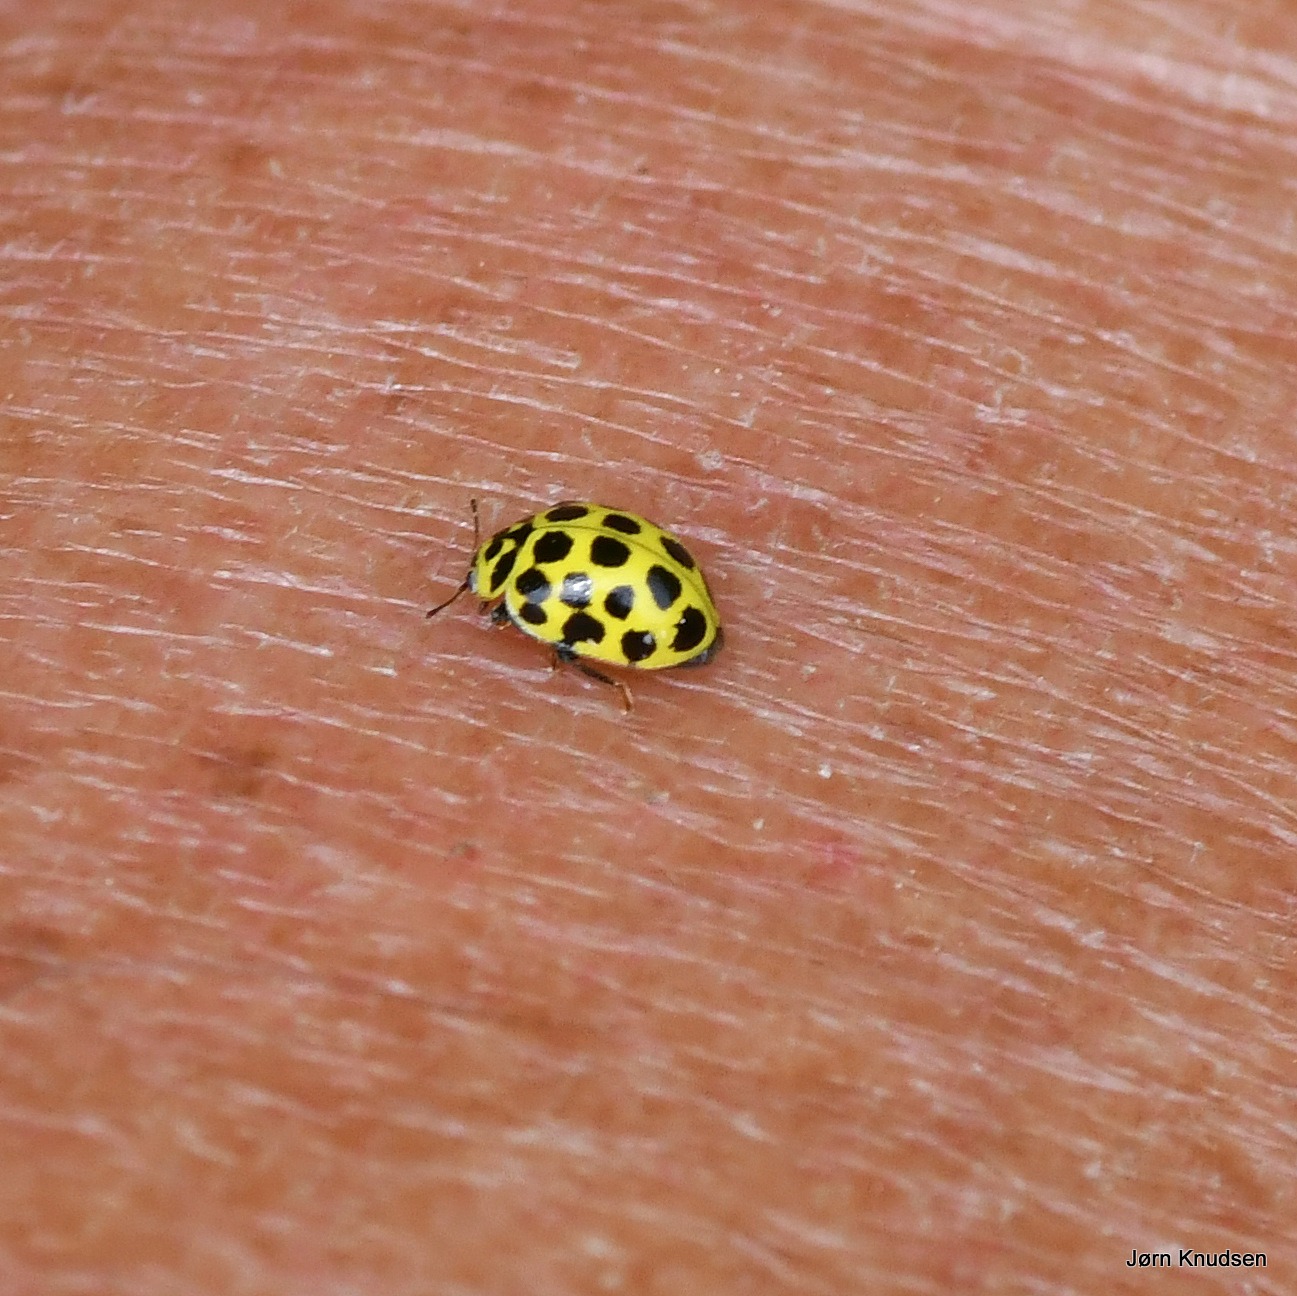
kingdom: Animalia
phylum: Arthropoda
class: Insecta
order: Coleoptera
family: Coccinellidae
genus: Psyllobora
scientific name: Psyllobora vigintiduopunctata
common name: Toogtyveplettet mariehøne
